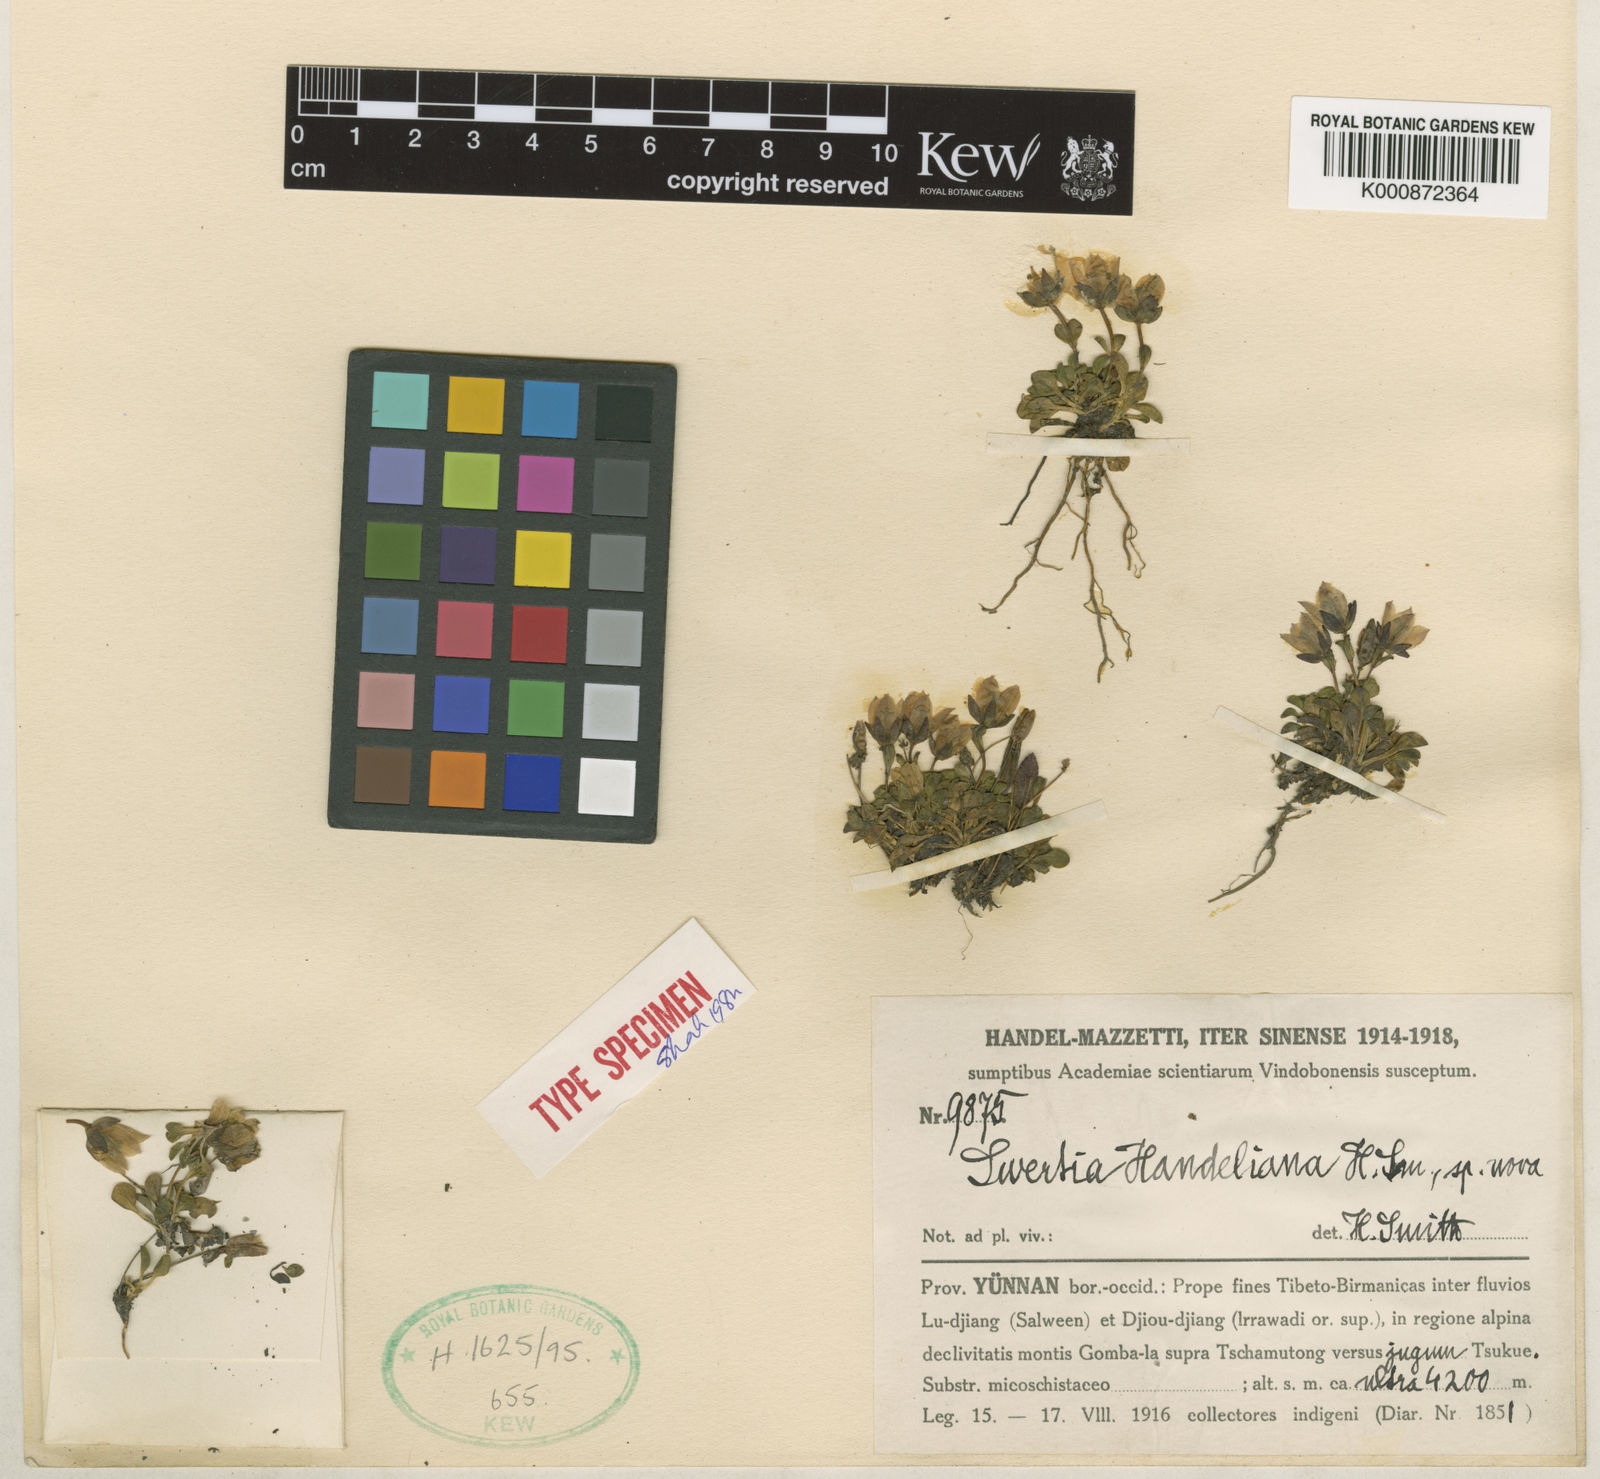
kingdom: Plantae
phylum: Tracheophyta
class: Magnoliopsida
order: Gentianales
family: Gentianaceae
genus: Swertia
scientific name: Swertia handeliana
